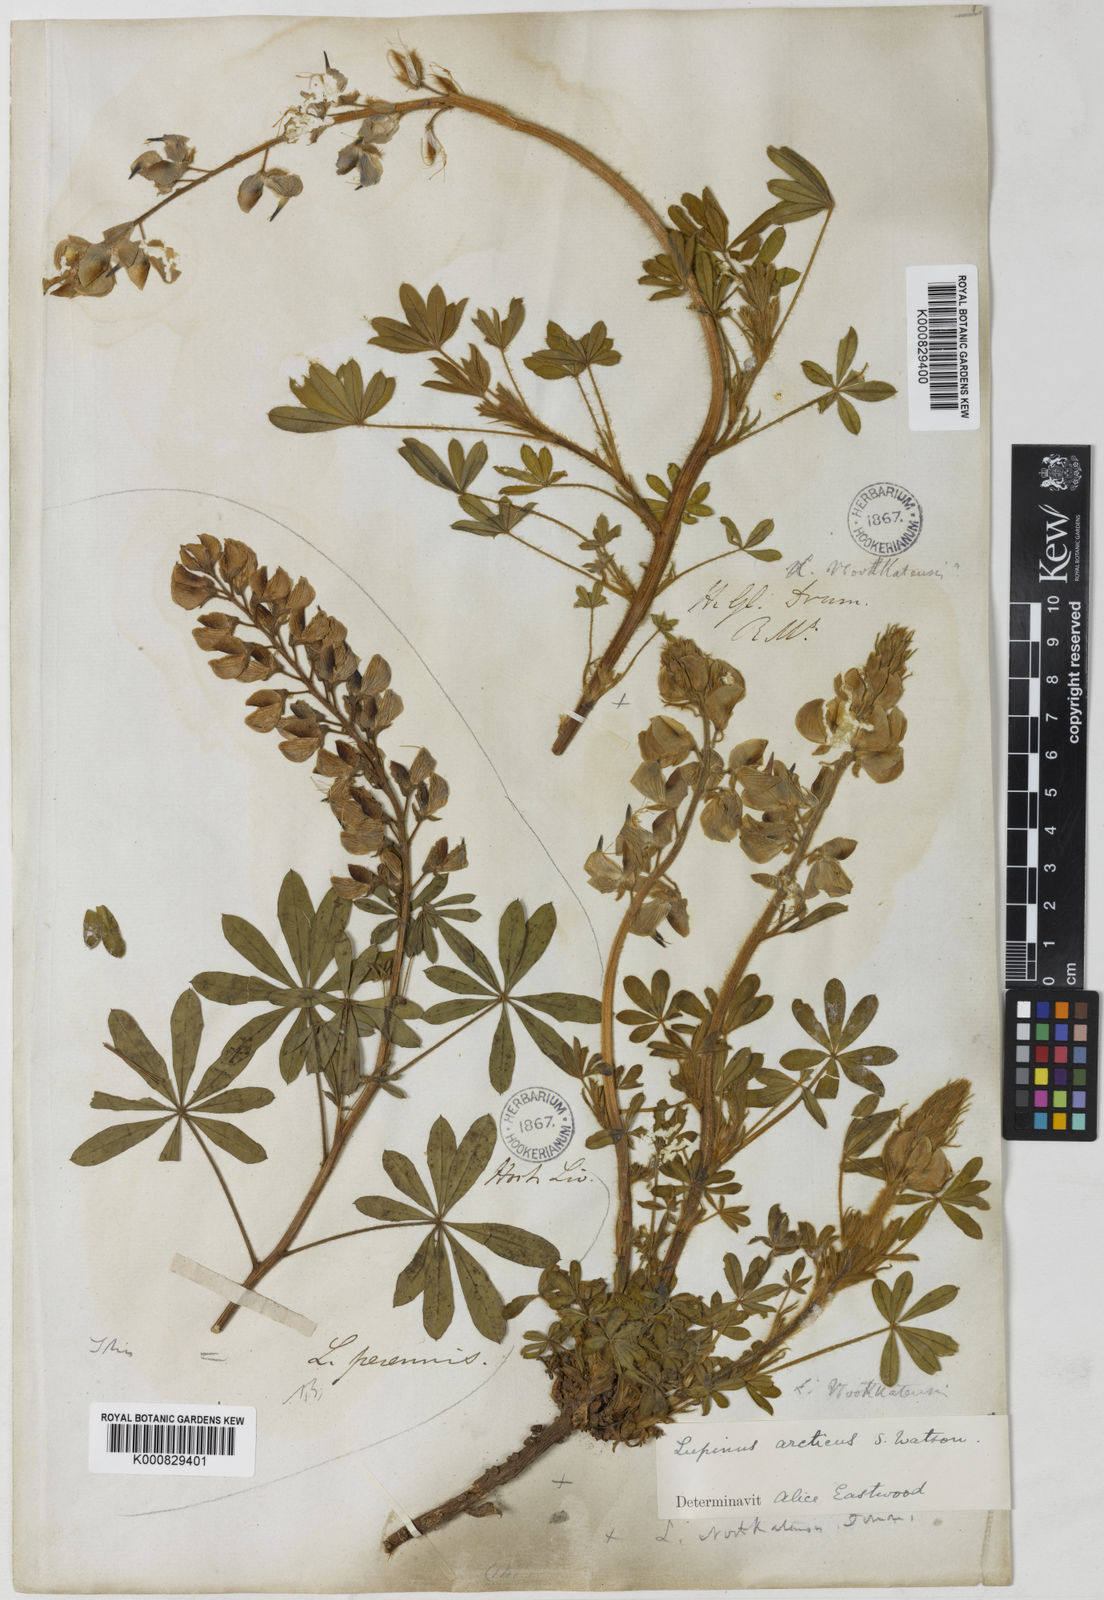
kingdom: Plantae
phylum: Tracheophyta
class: Magnoliopsida
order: Fabales
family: Fabaceae
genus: Lupinus
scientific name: Lupinus arcticus
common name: Arctic lupine
